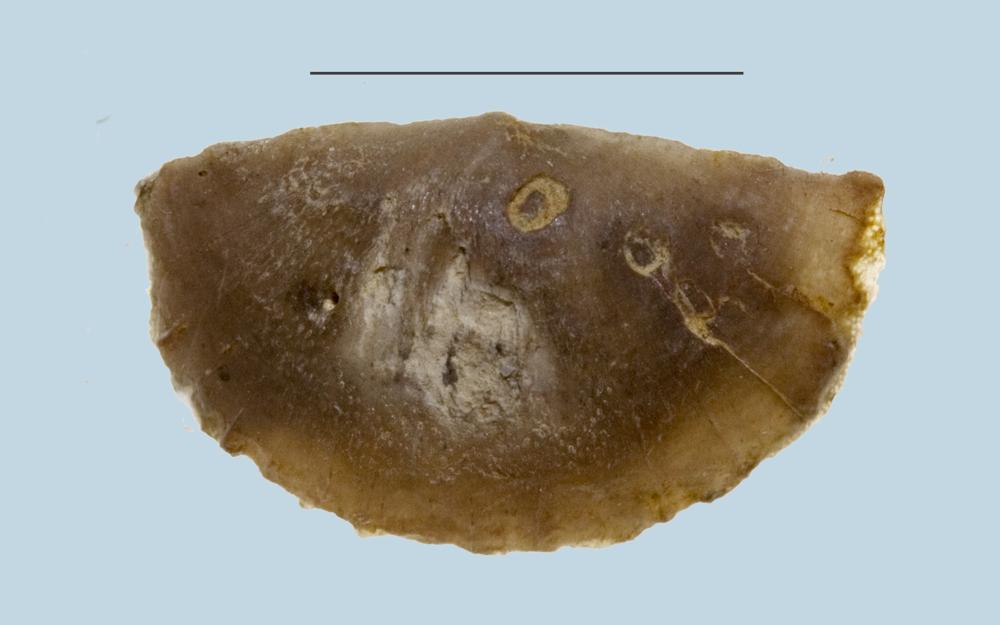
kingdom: Animalia
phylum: Brachiopoda
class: Lingulata
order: Lingulida
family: Lingulidae
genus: Lingula
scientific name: Lingula
